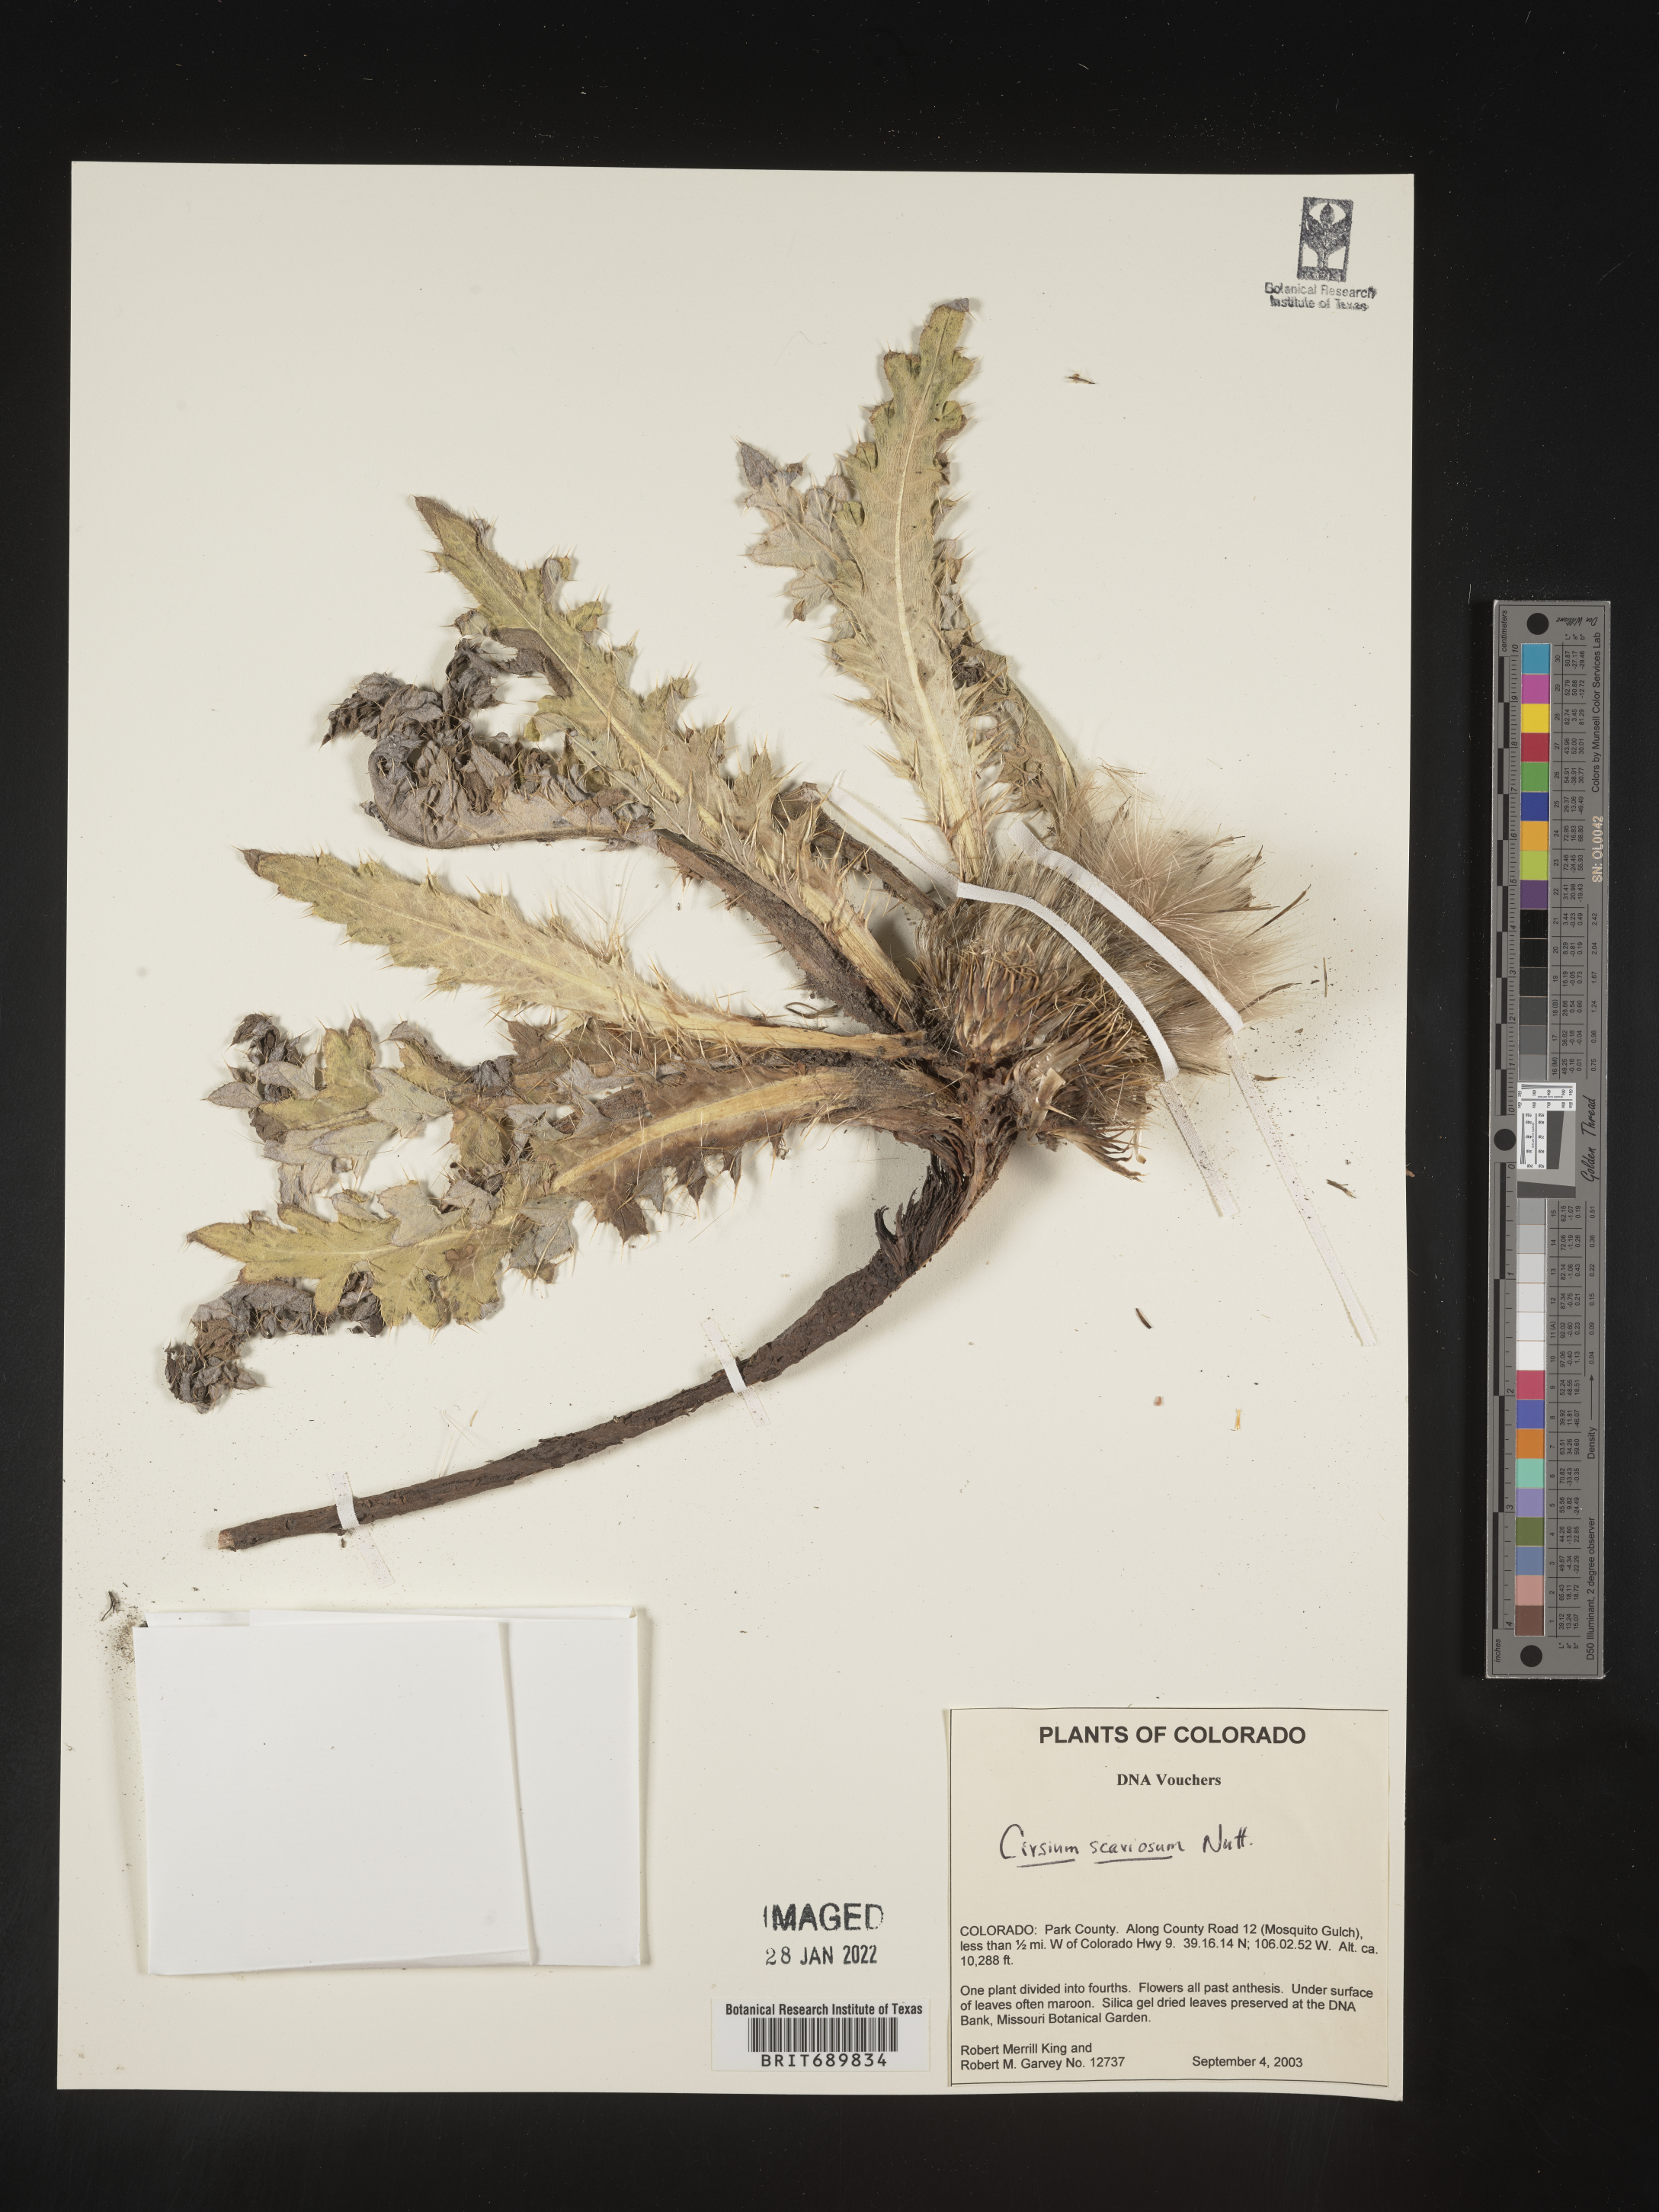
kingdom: Plantae
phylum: Tracheophyta
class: Magnoliopsida
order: Asterales
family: Asteraceae
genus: Cirsium
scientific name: Cirsium scariosum
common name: Meadow thistle
